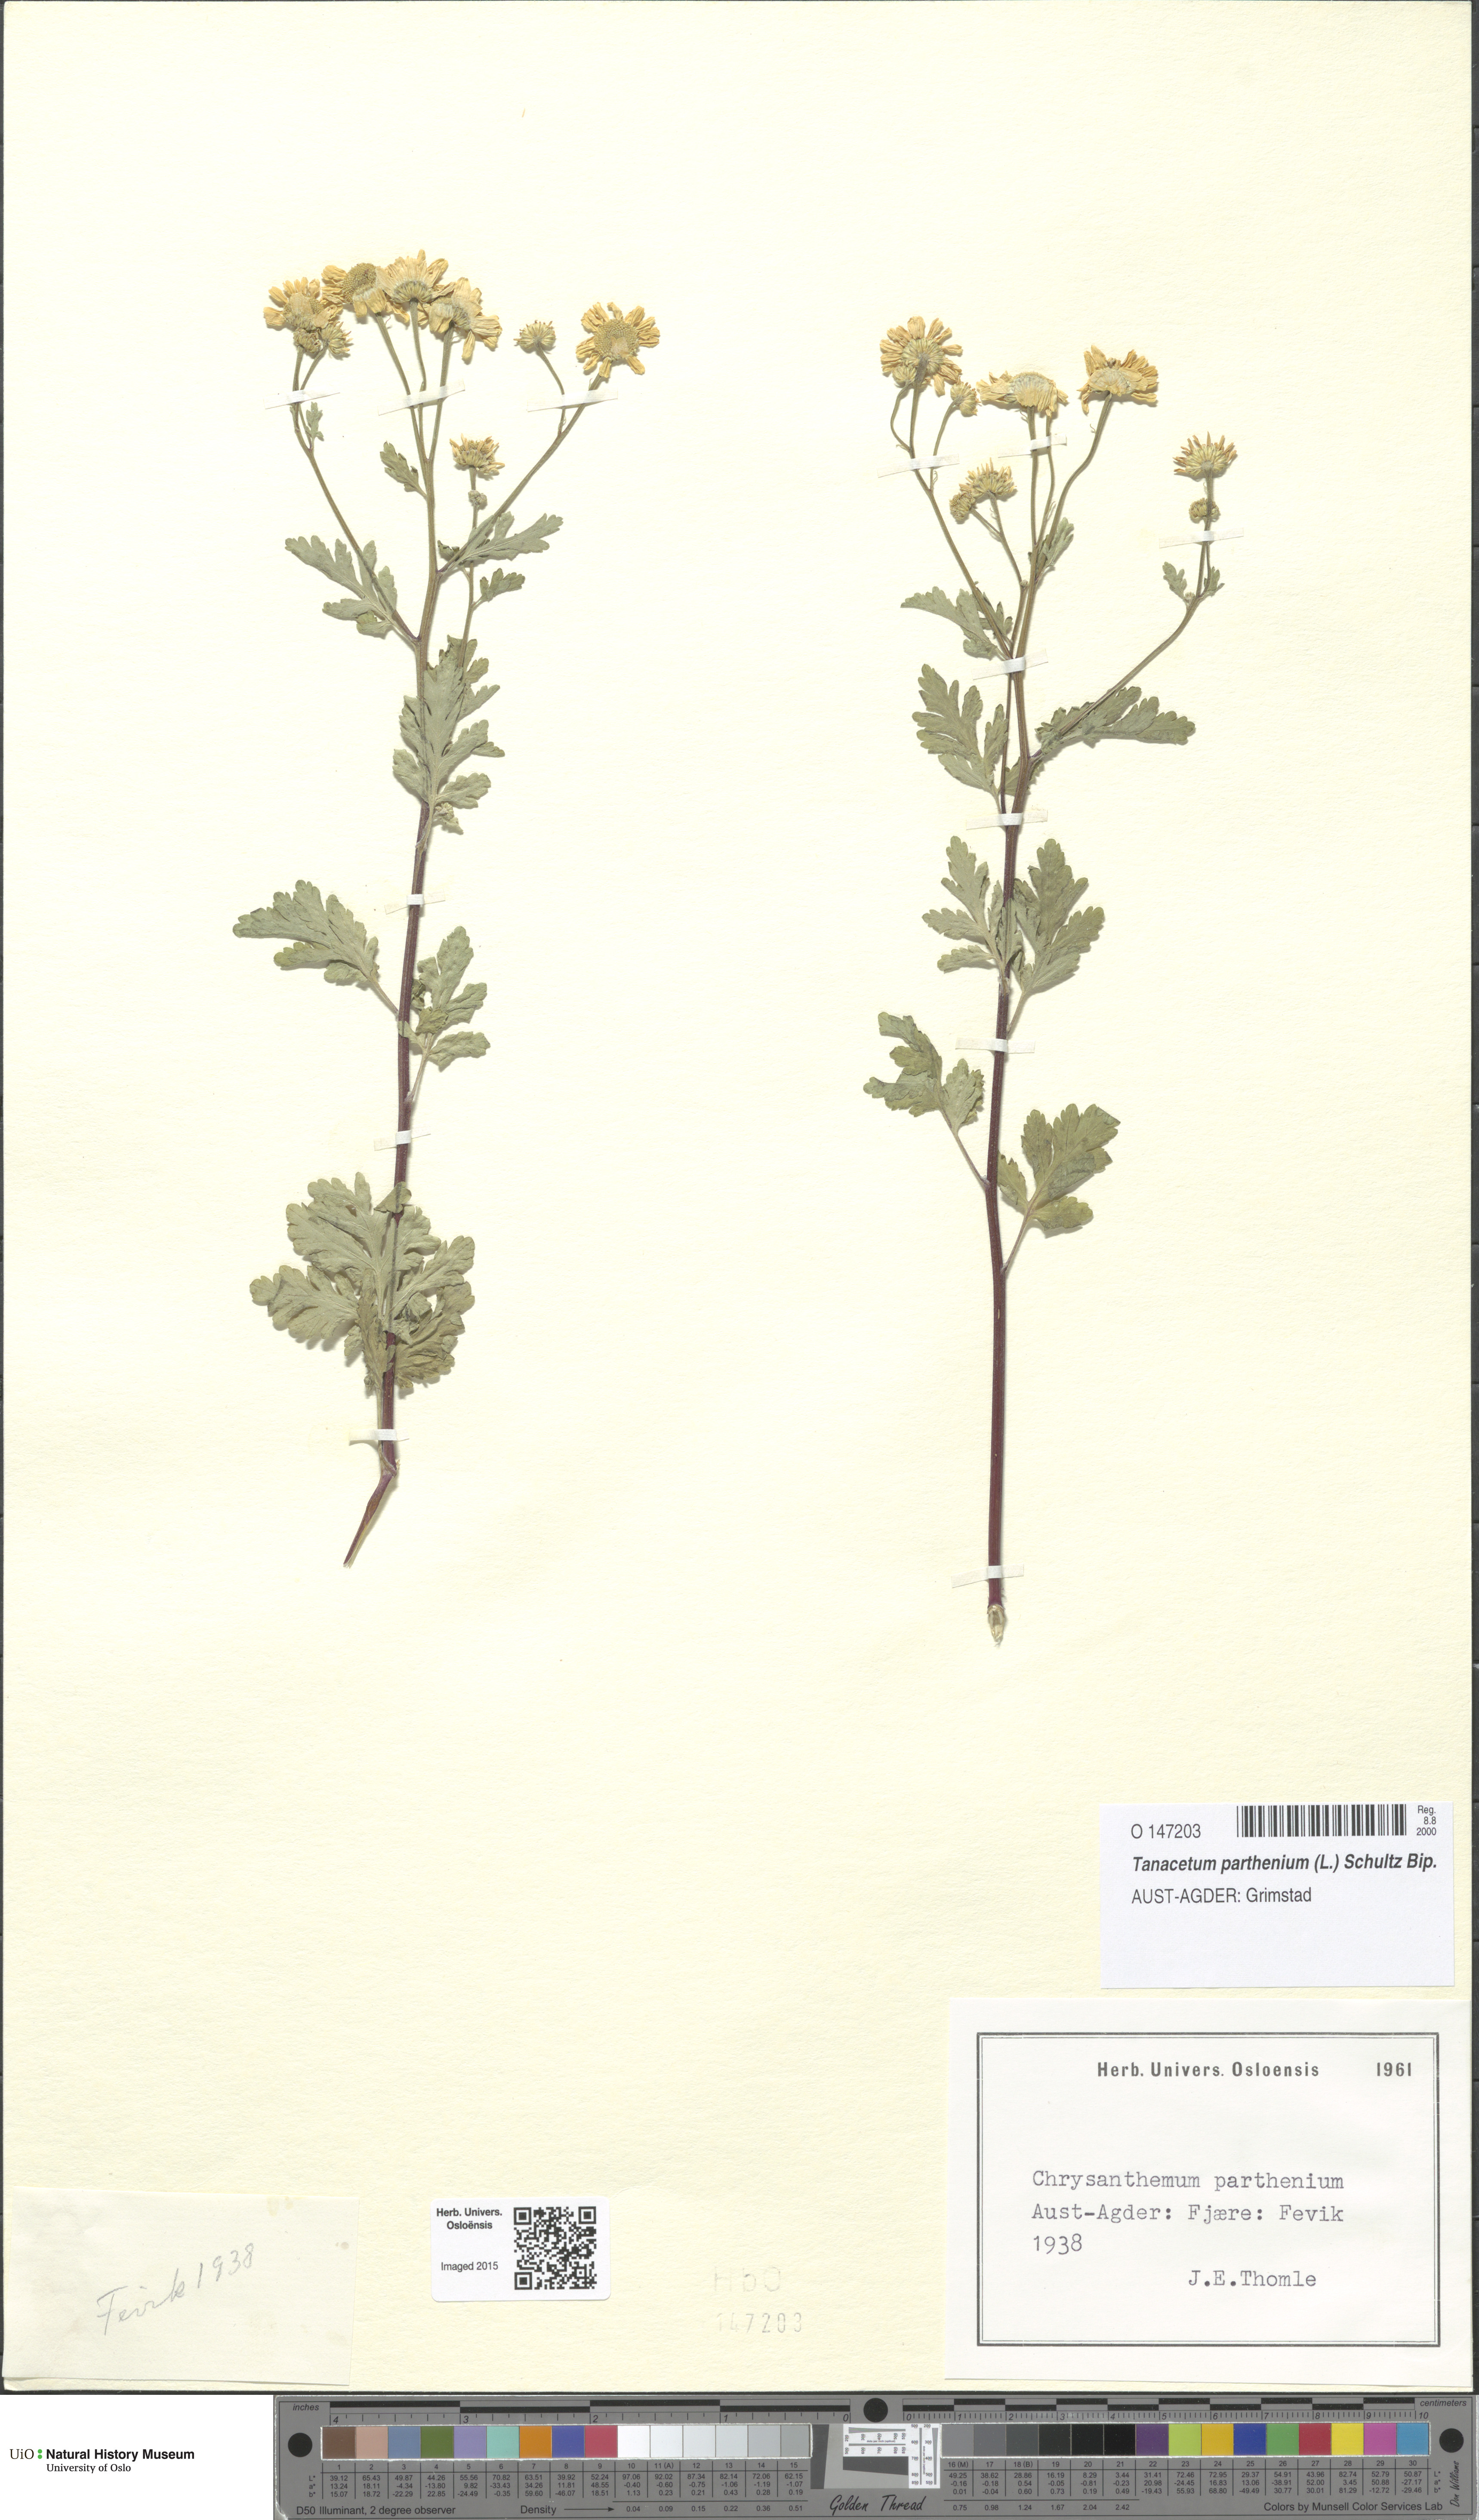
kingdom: Plantae
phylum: Tracheophyta
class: Magnoliopsida
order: Asterales
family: Asteraceae
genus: Tanacetum
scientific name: Tanacetum parthenium
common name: Feverfew
